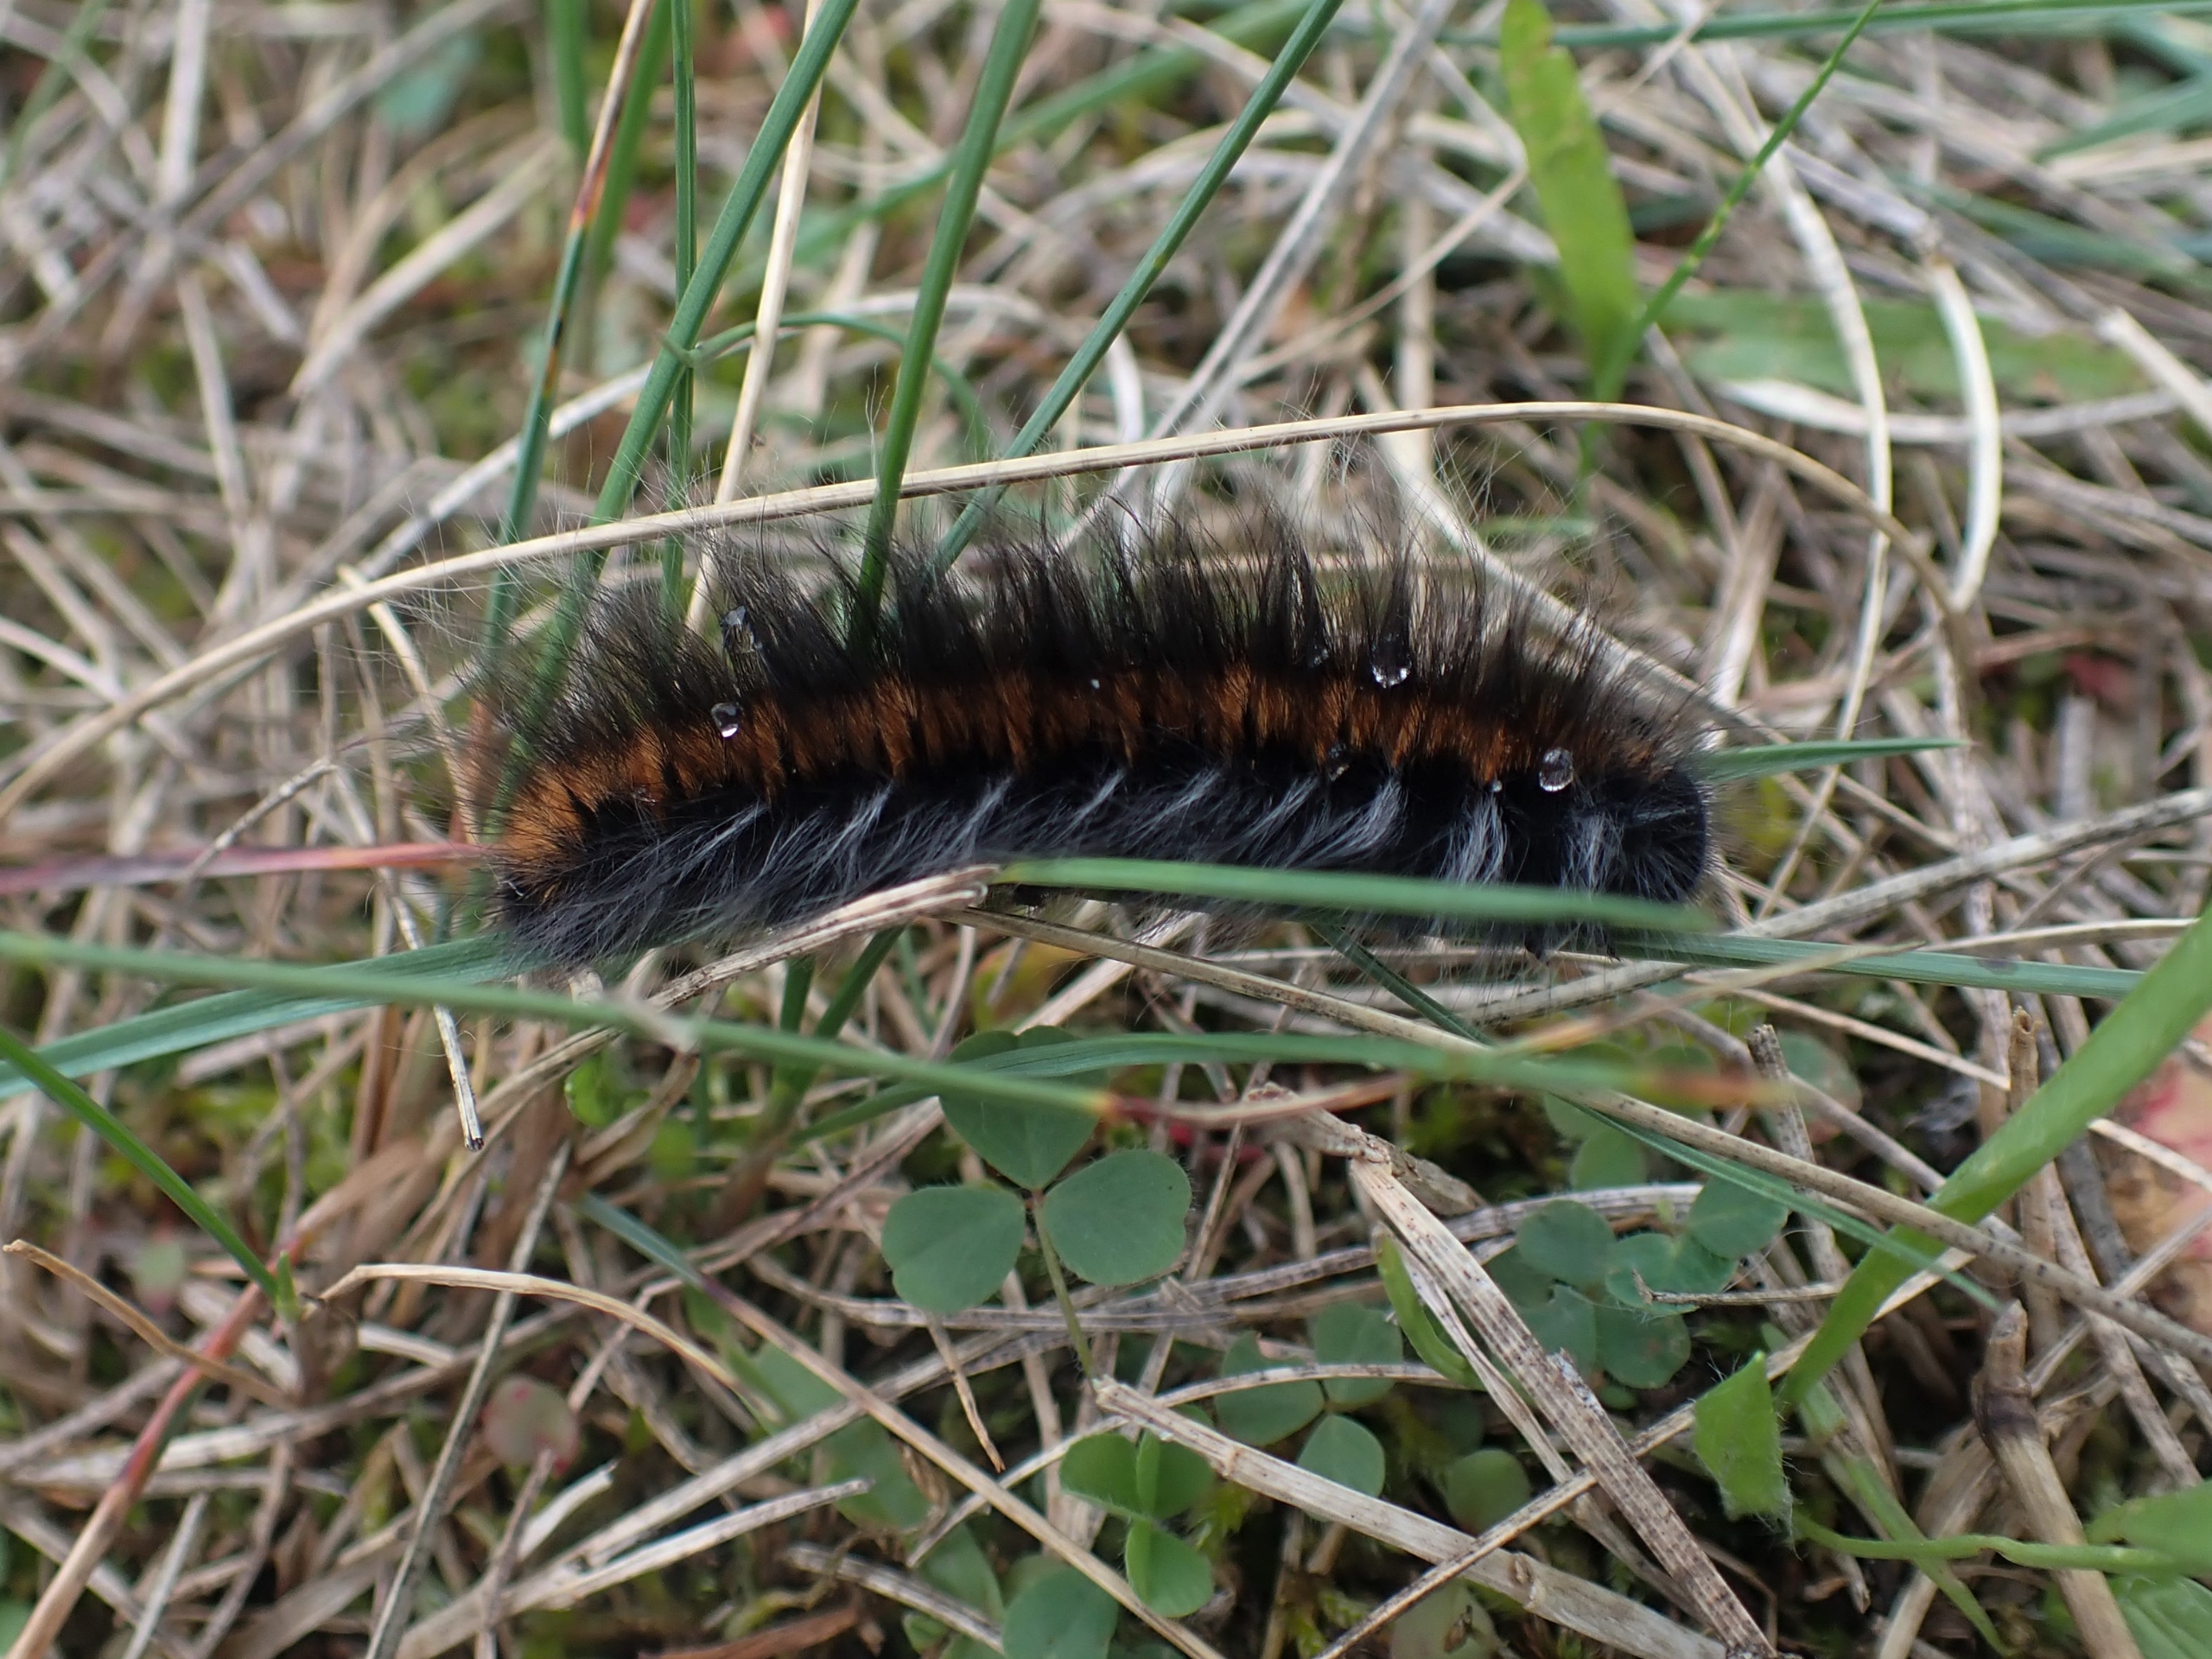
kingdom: Animalia
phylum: Arthropoda
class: Insecta
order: Lepidoptera
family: Lasiocampidae
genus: Macrothylacia
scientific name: Macrothylacia rubi
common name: Brombærspinder
